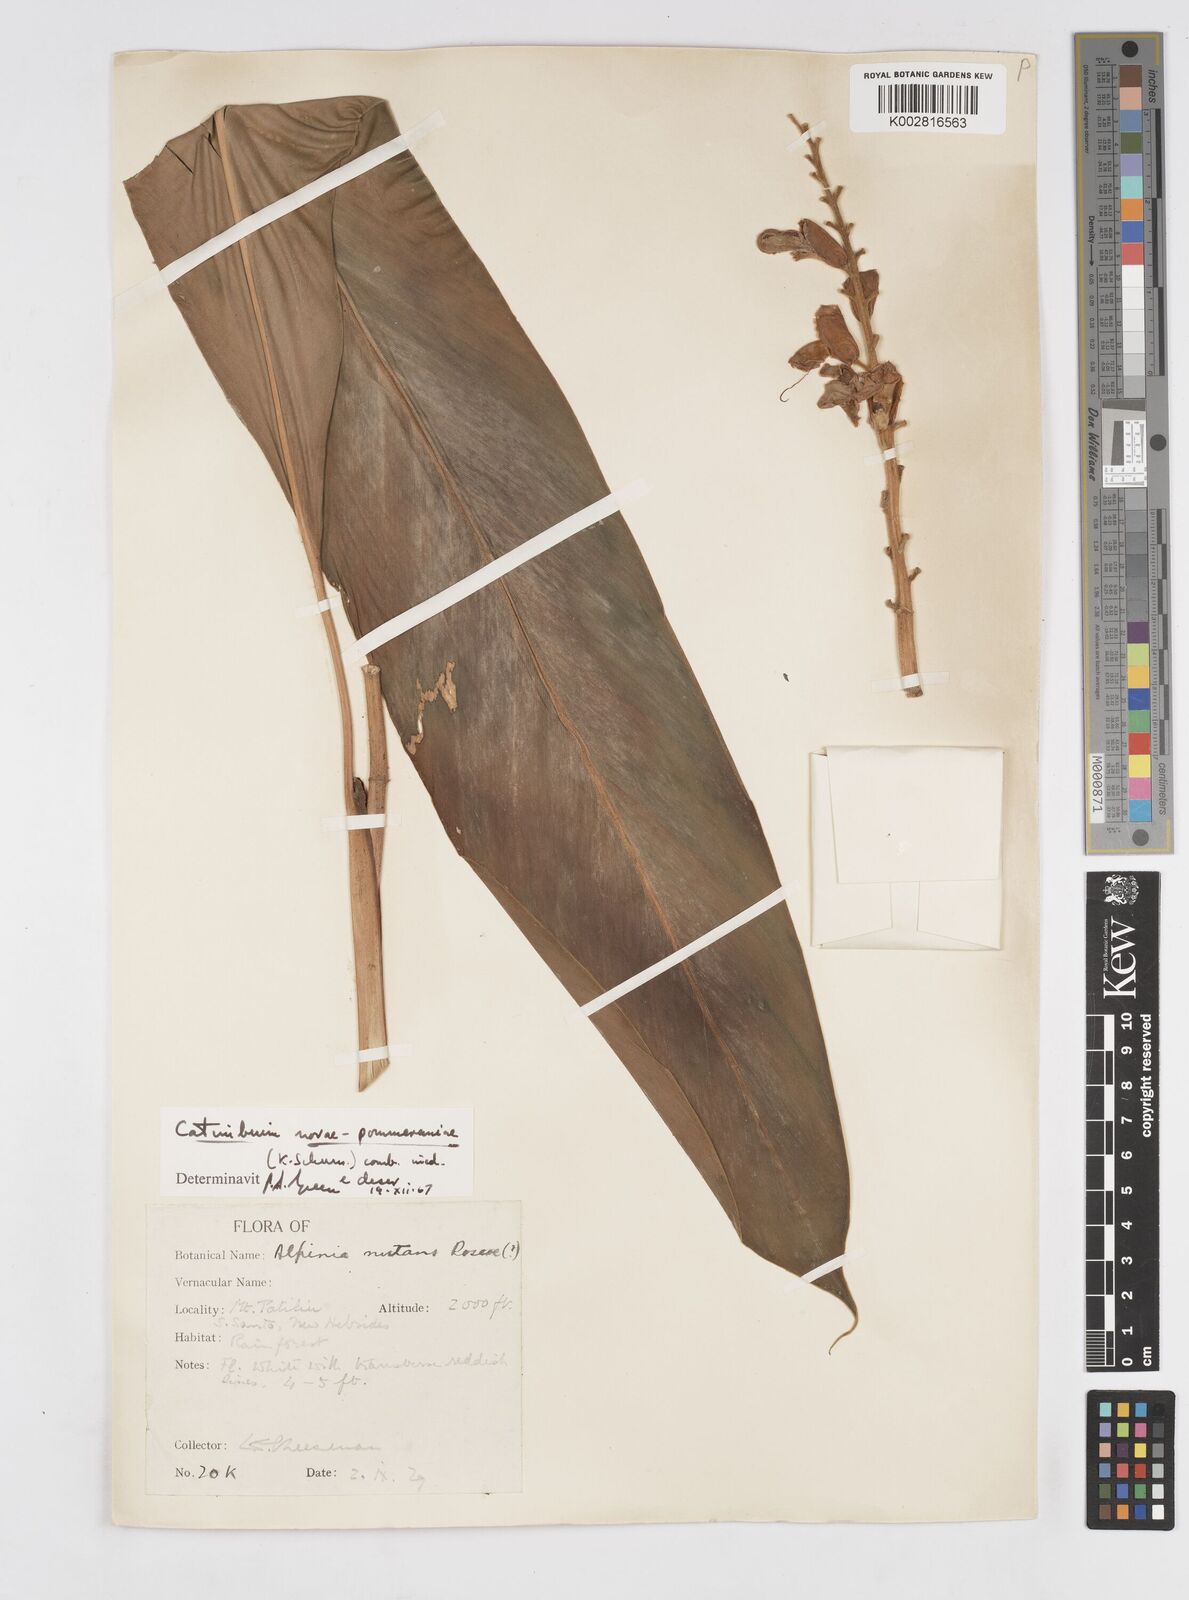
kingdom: Plantae
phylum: Tracheophyta
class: Liliopsida
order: Zingiberales
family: Zingiberaceae
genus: Alpinia
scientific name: Alpinia novae-pommeraniae
